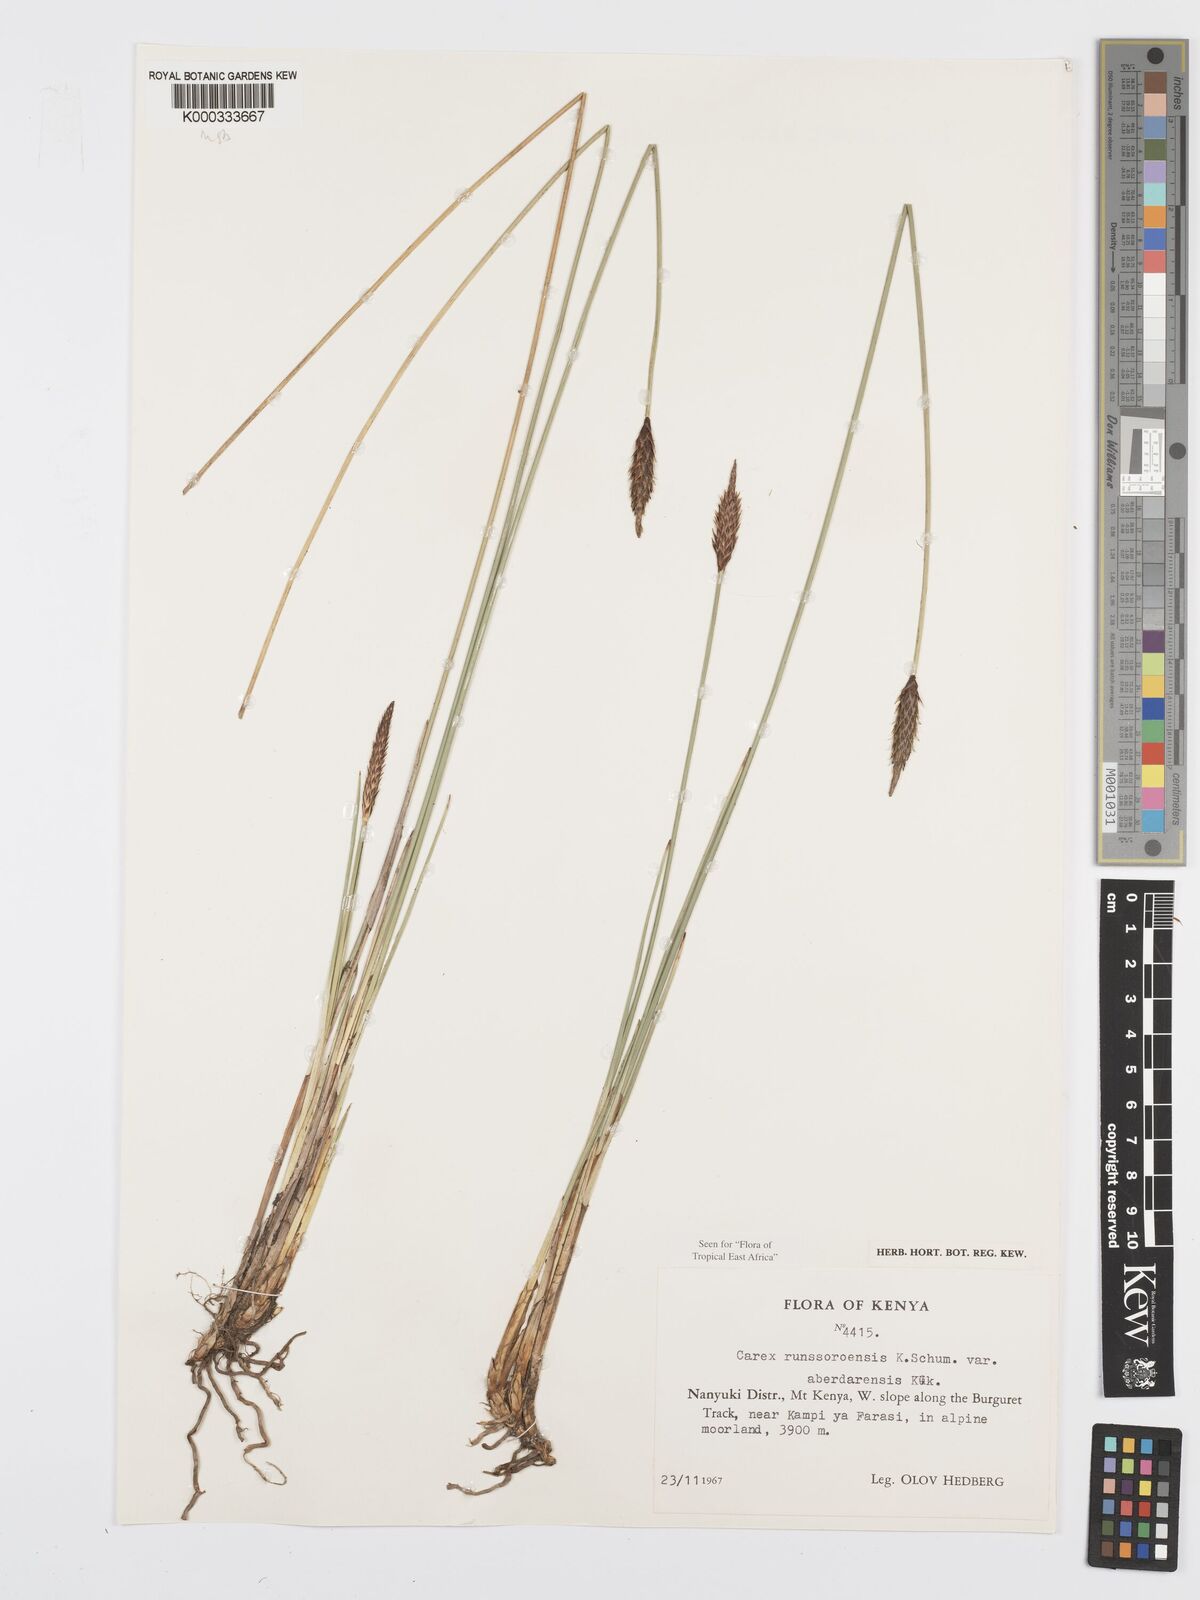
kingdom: Plantae
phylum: Tracheophyta
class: Liliopsida
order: Poales
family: Cyperaceae
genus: Carex
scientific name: Carex runssoroensis
